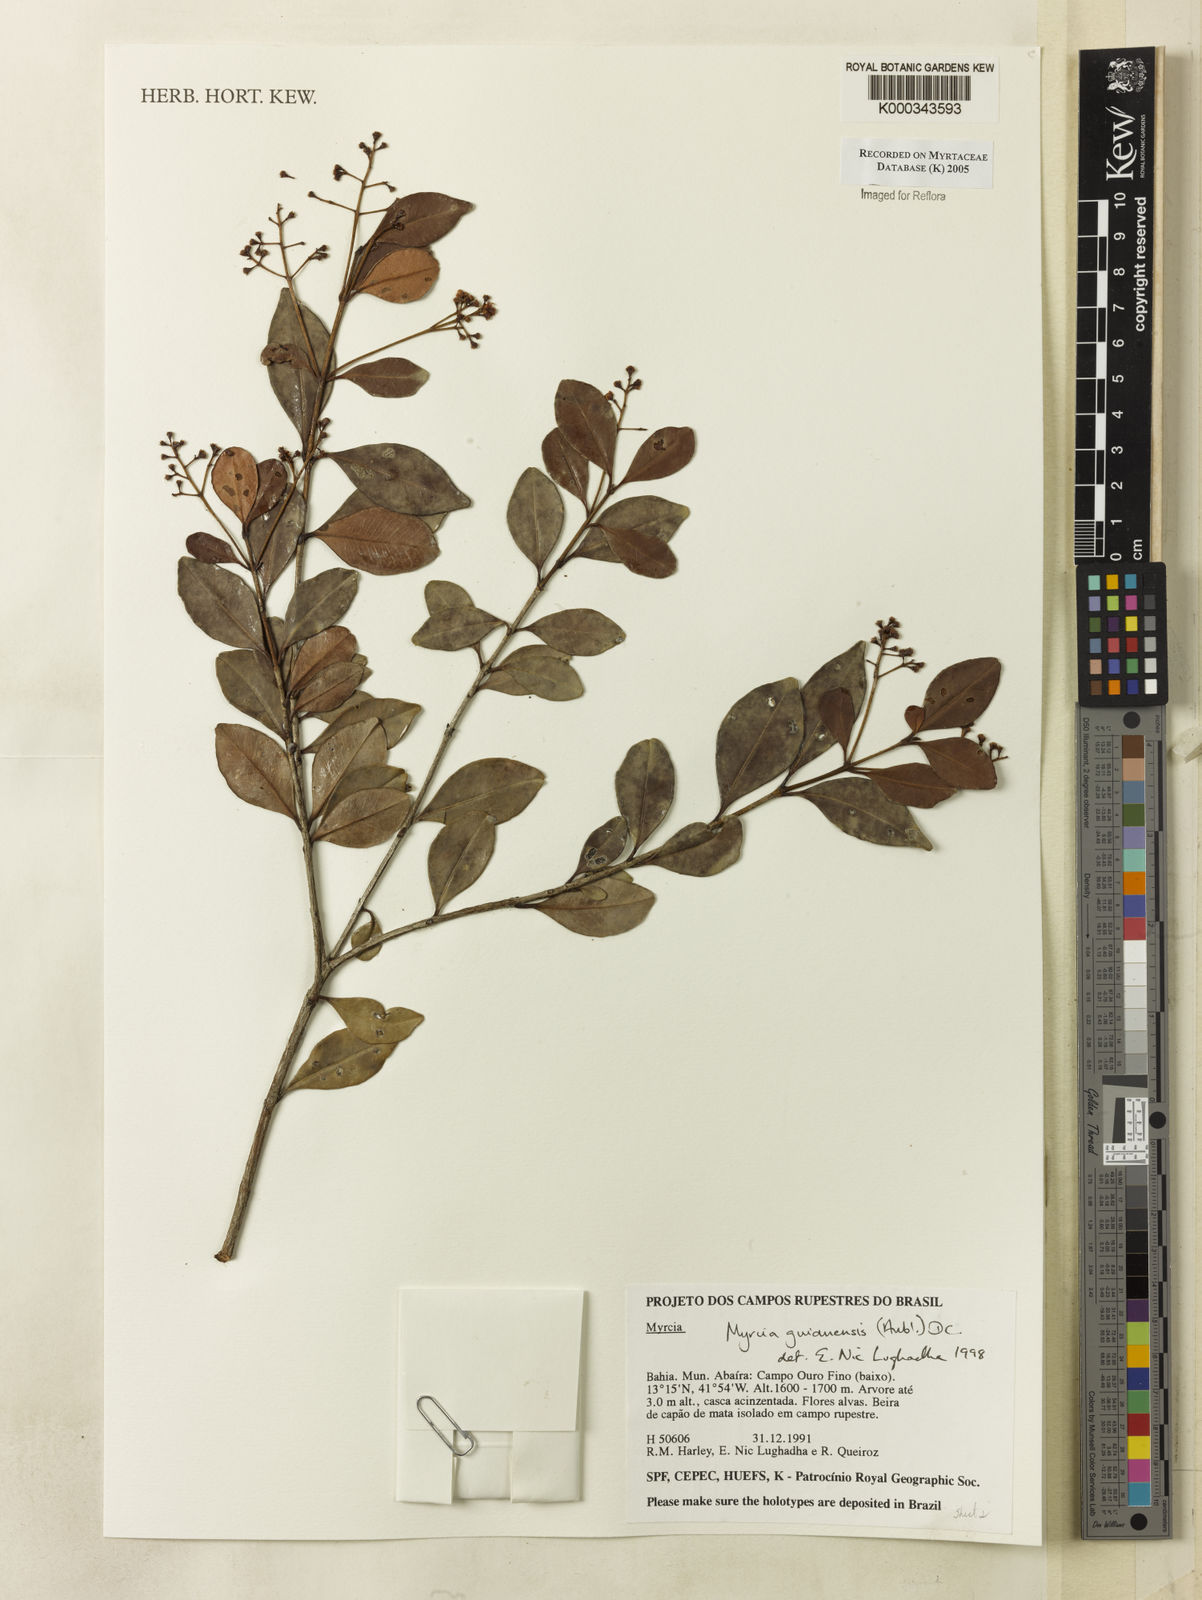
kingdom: Plantae
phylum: Tracheophyta
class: Magnoliopsida
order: Myrtales
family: Myrtaceae
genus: Myrcia
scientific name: Myrcia guianensis
